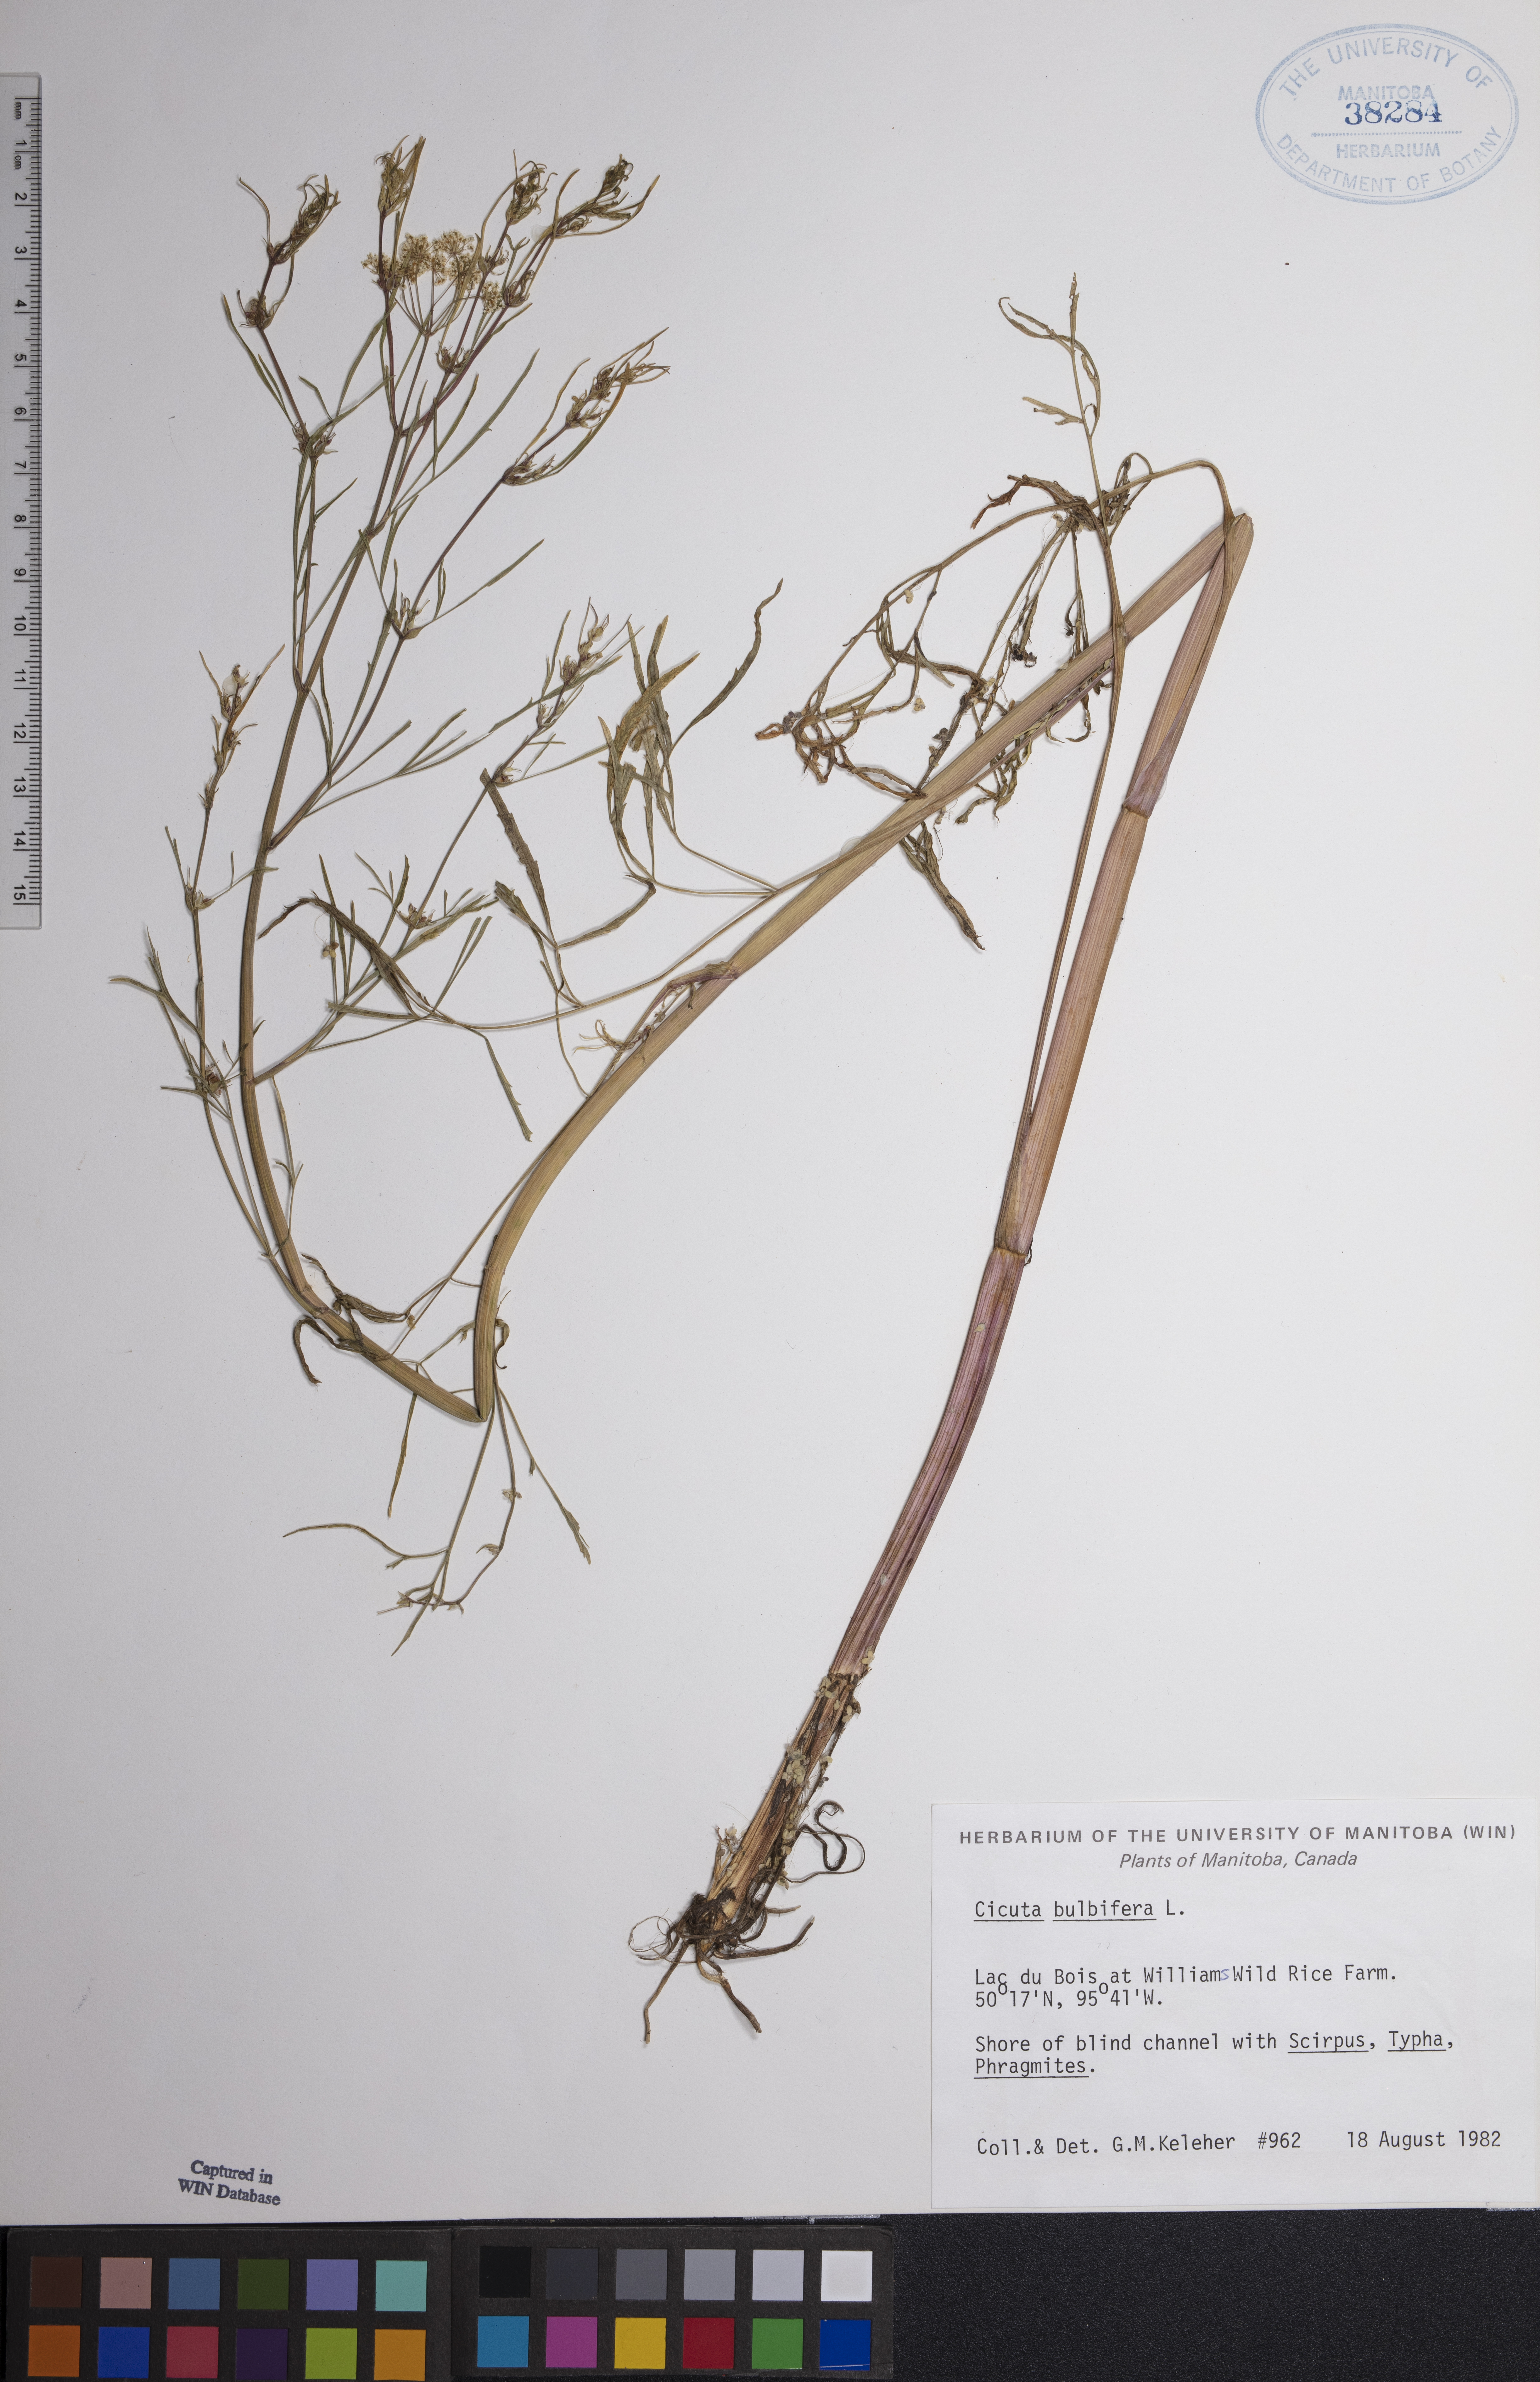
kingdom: Plantae
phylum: Tracheophyta
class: Magnoliopsida
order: Apiales
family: Apiaceae
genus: Cicuta
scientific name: Cicuta bulbifera
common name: Bulb-bearing water-hemlock
